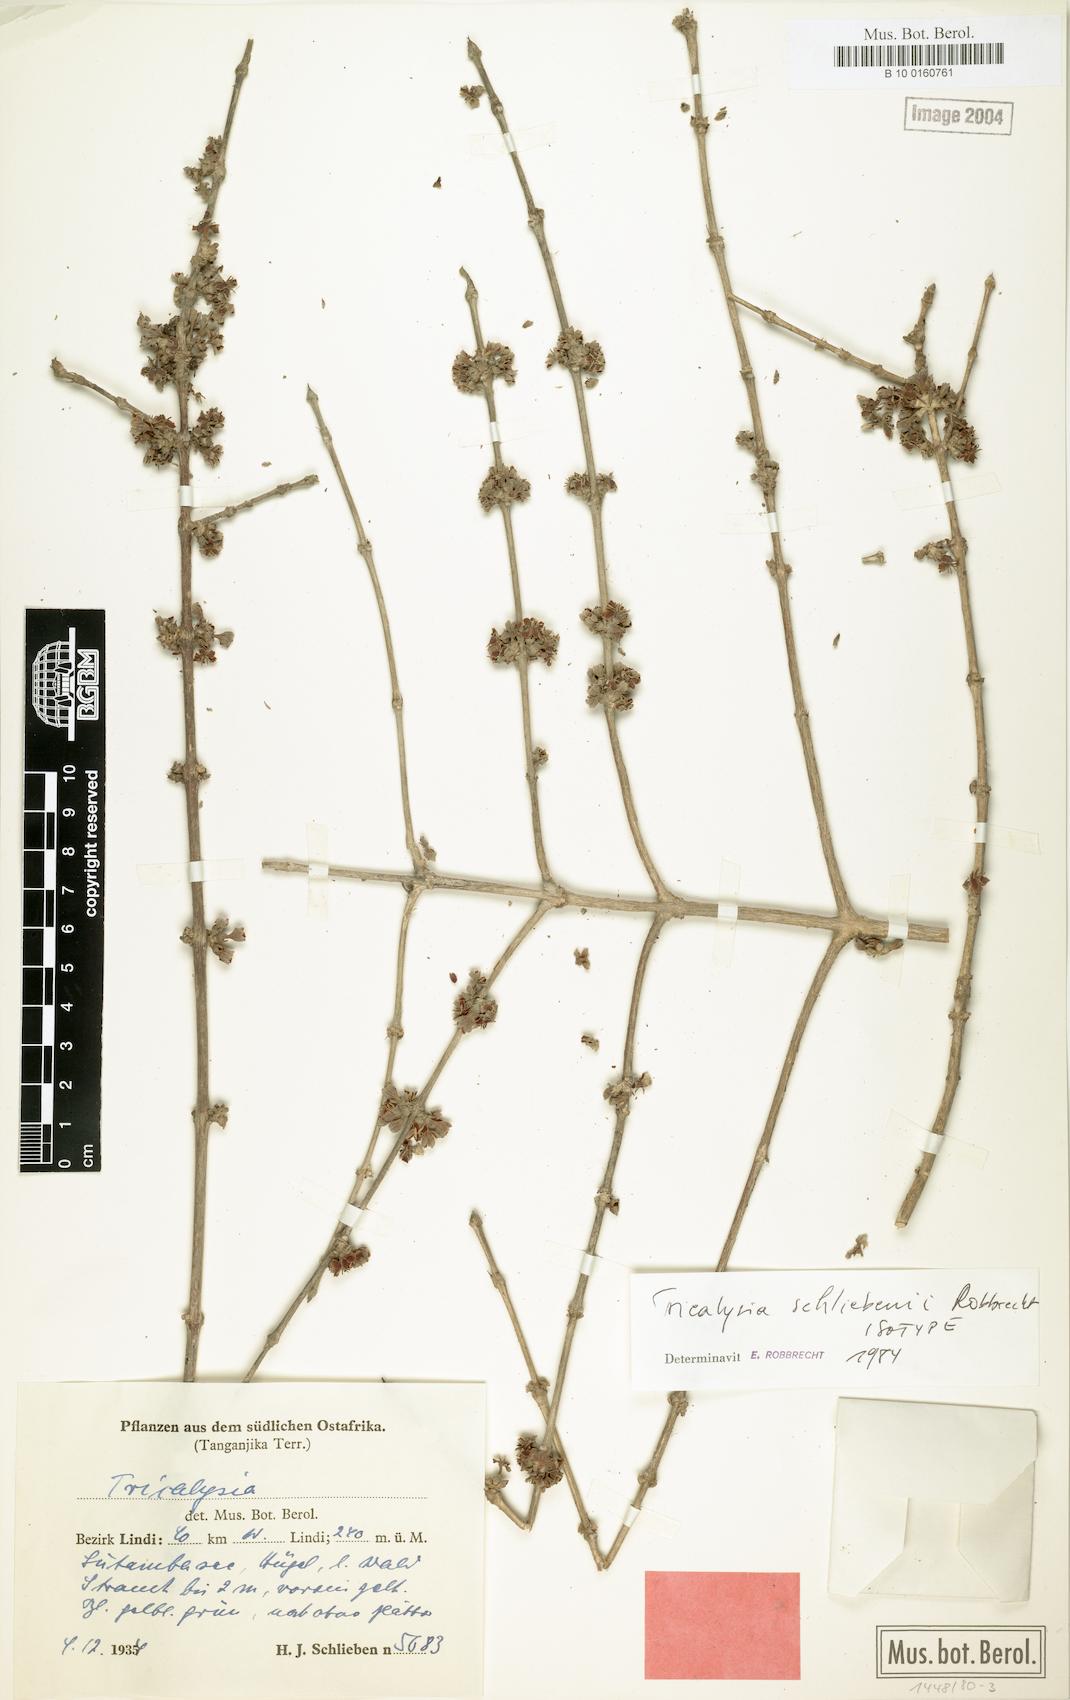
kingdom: Plantae
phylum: Tracheophyta
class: Magnoliopsida
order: Gentianales
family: Rubiaceae
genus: Tricalysia
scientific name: Tricalysia schliebenii
